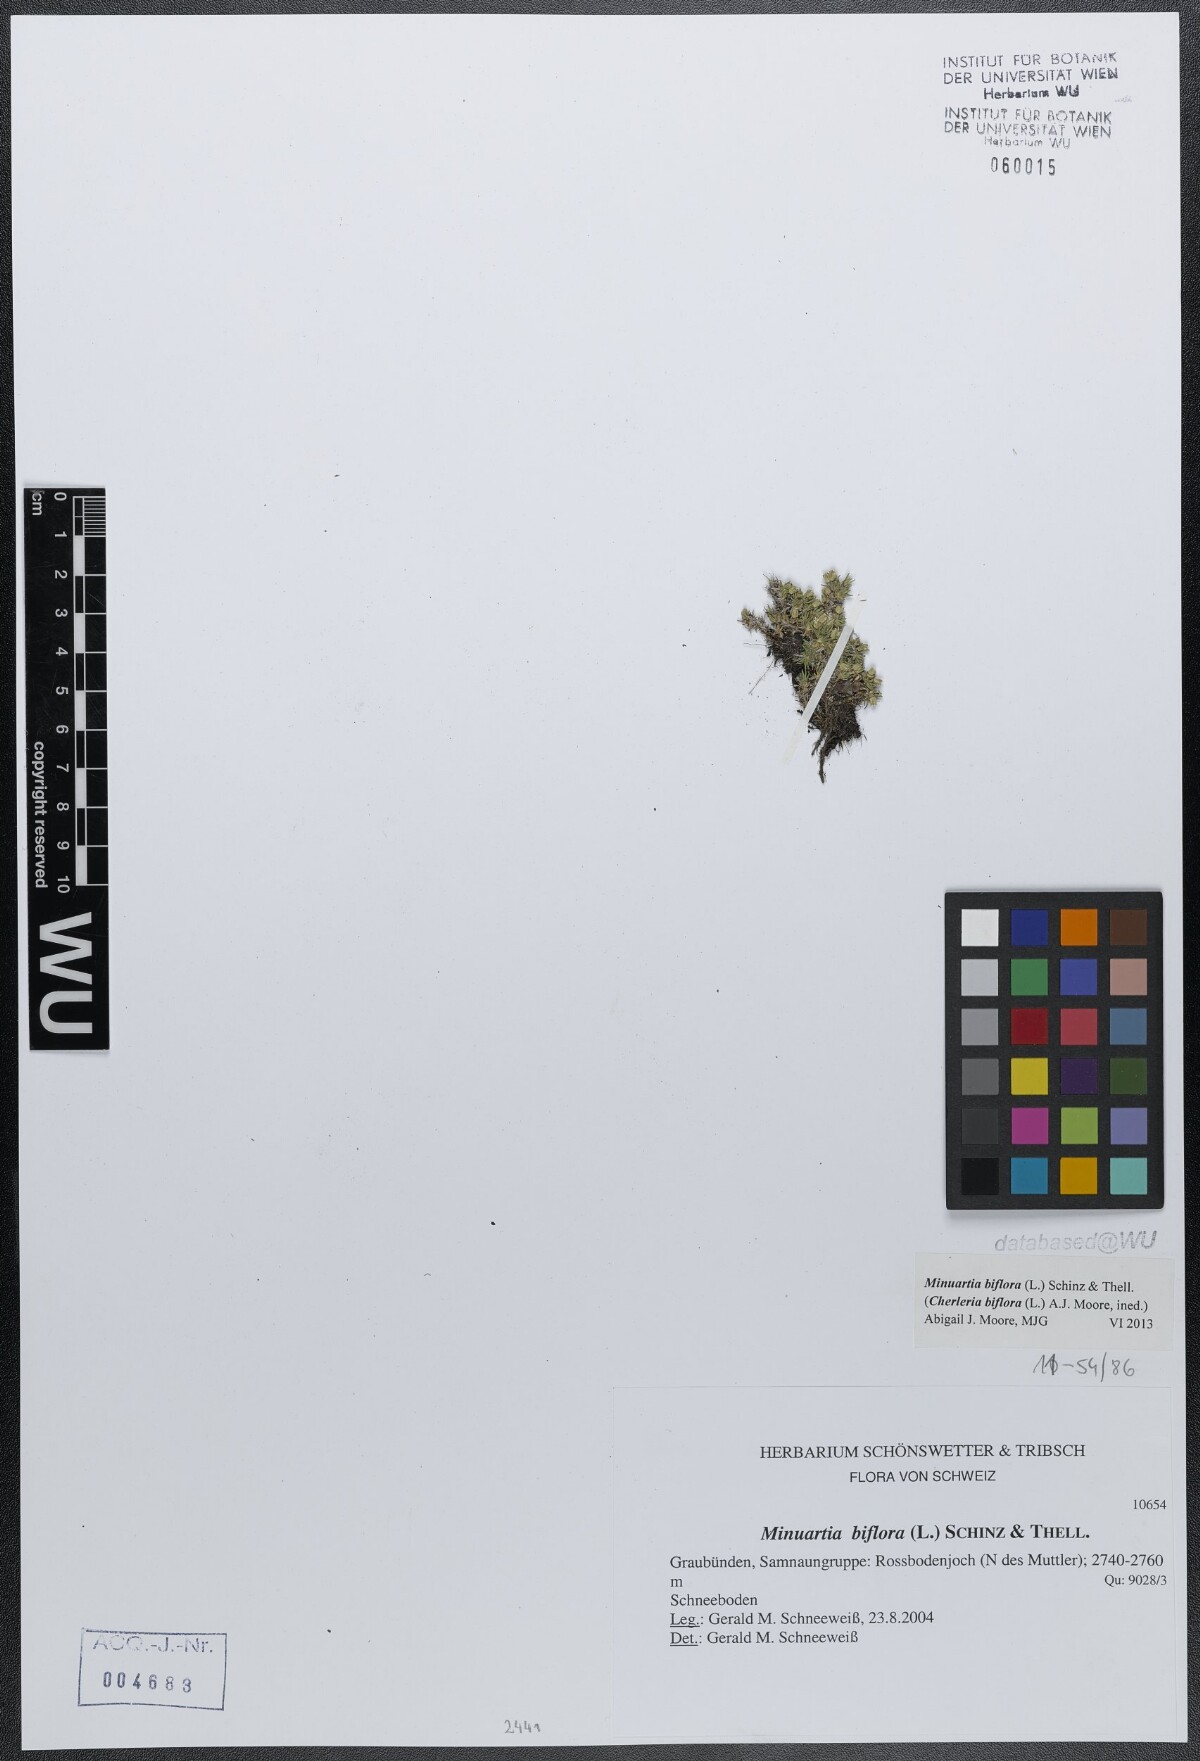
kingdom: Plantae
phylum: Tracheophyta
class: Magnoliopsida
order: Caryophyllales
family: Caryophyllaceae
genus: Cherleria
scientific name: Cherleria biflora
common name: Mountain sandwort
